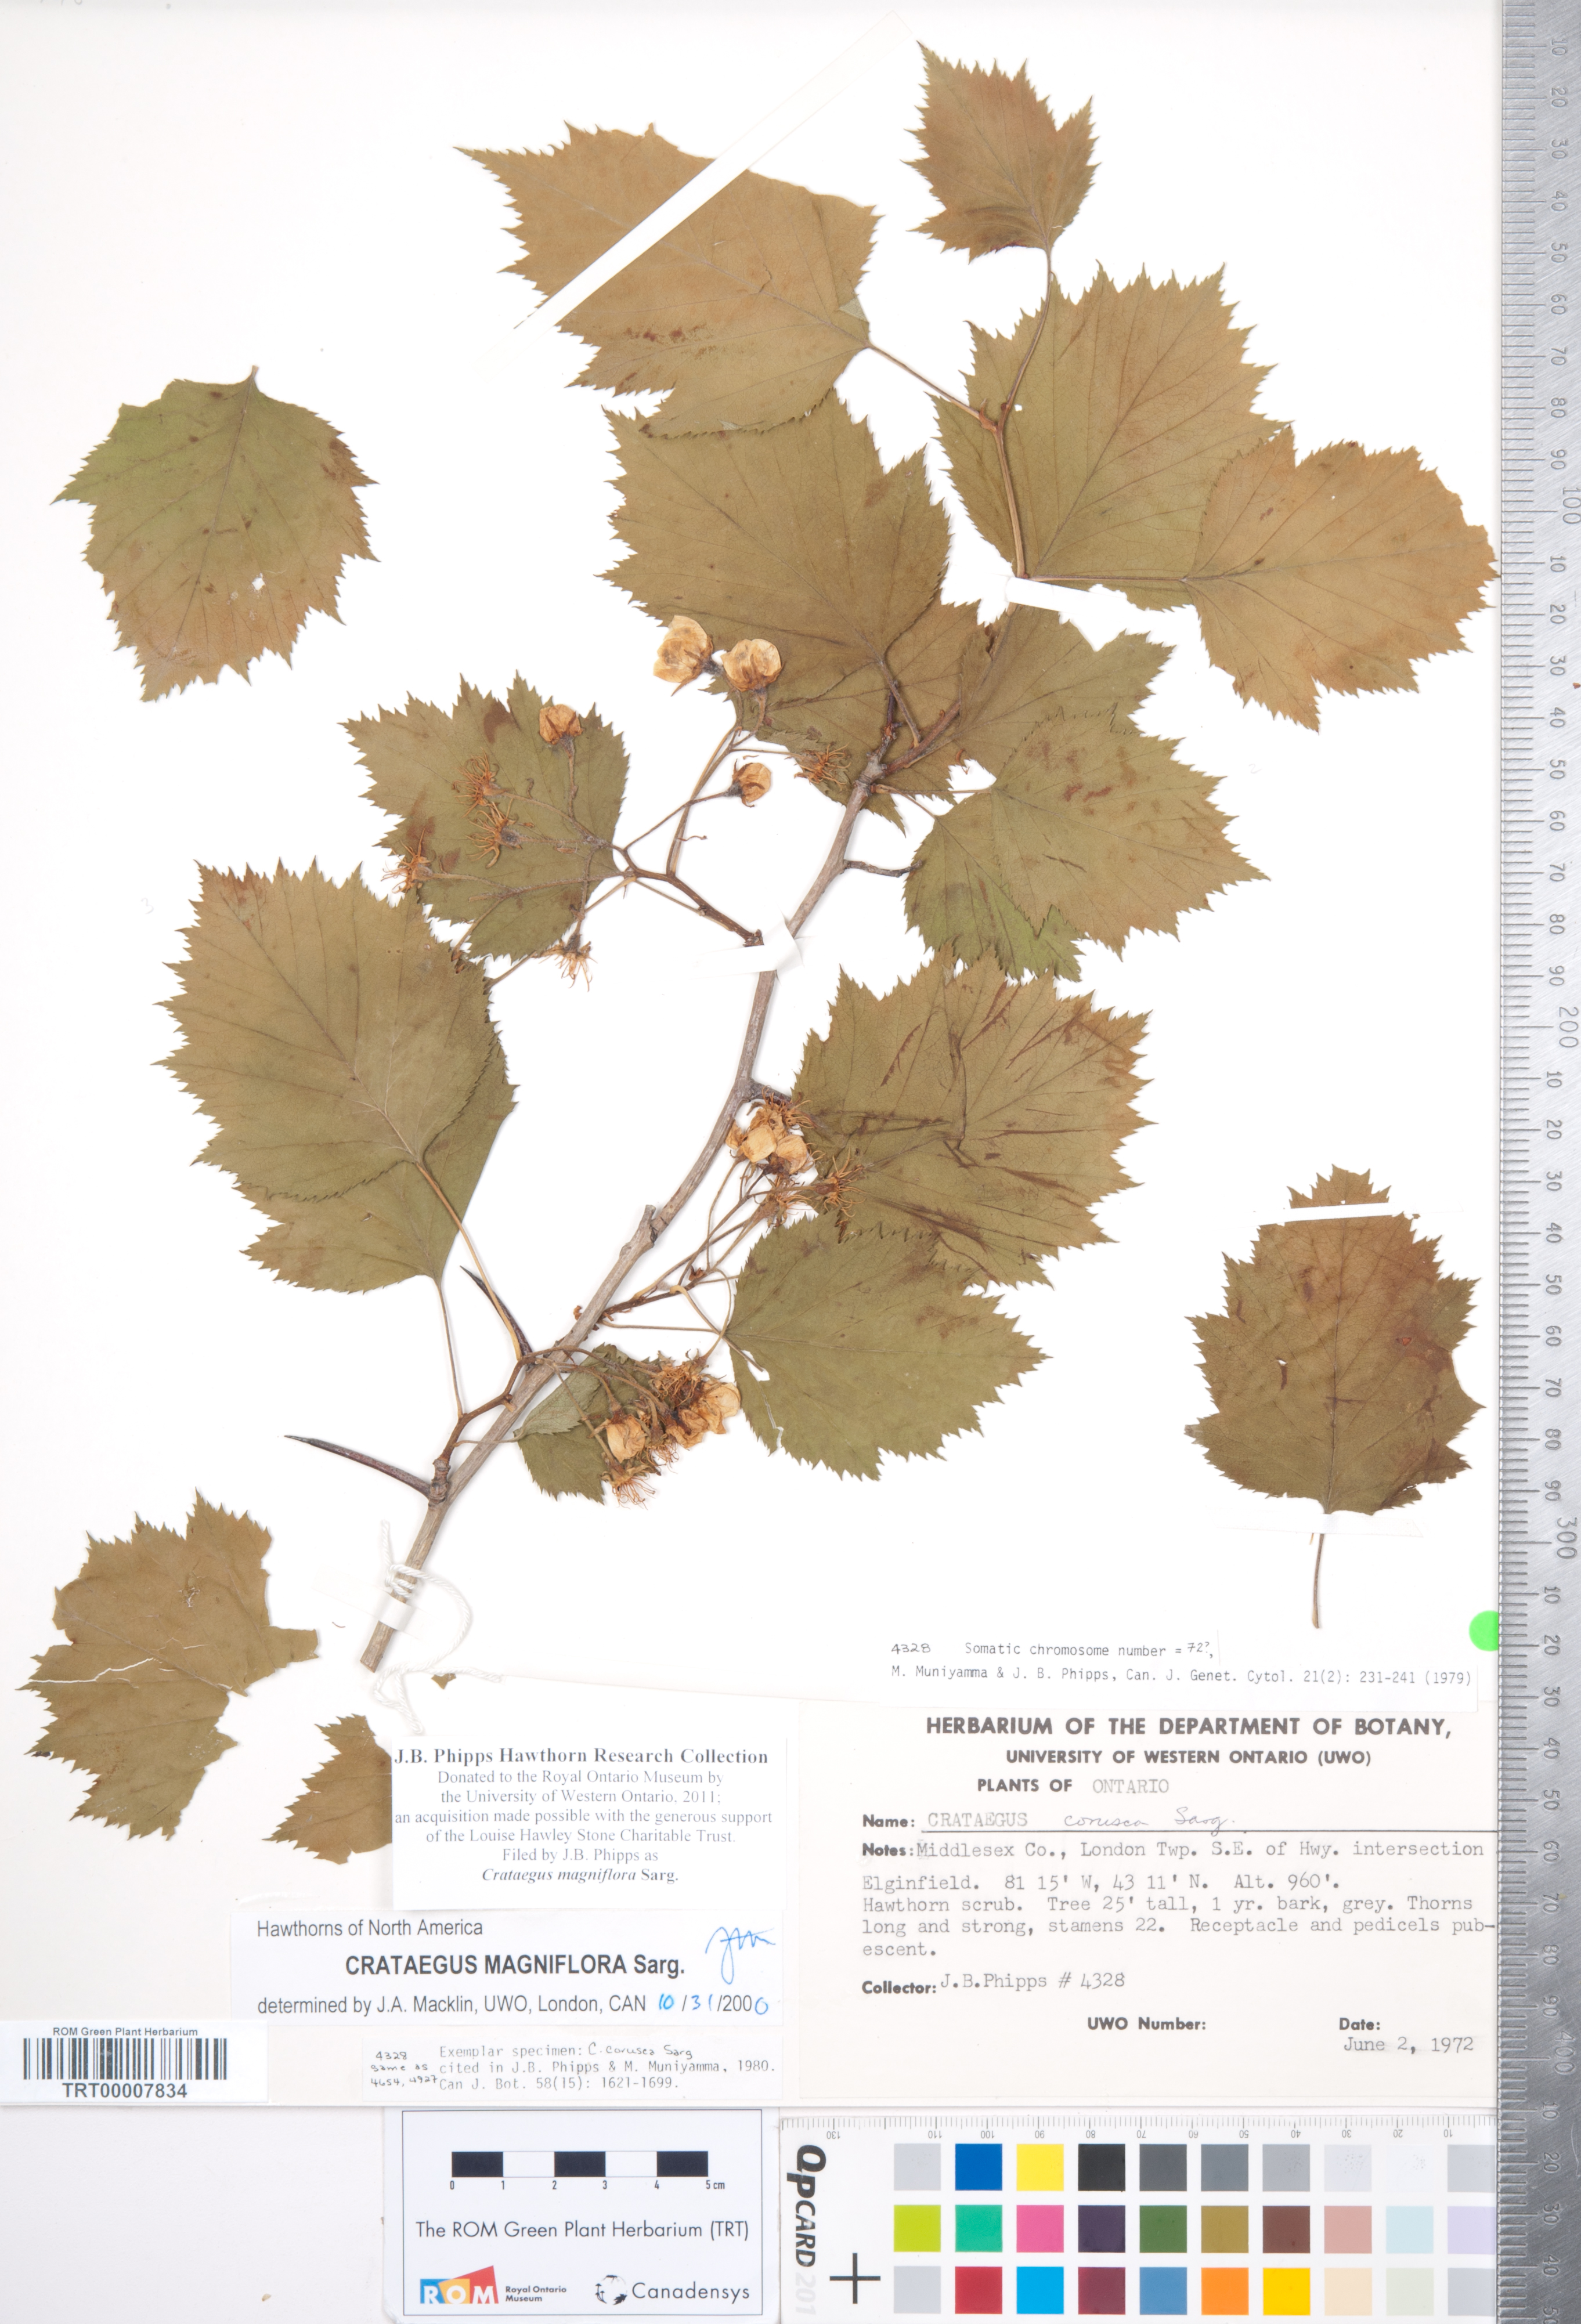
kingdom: Plantae
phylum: Tracheophyta
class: Magnoliopsida
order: Rosales
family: Rosaceae
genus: Crataegus
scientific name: Crataegus magniflora
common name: Gleaming hawthorn
